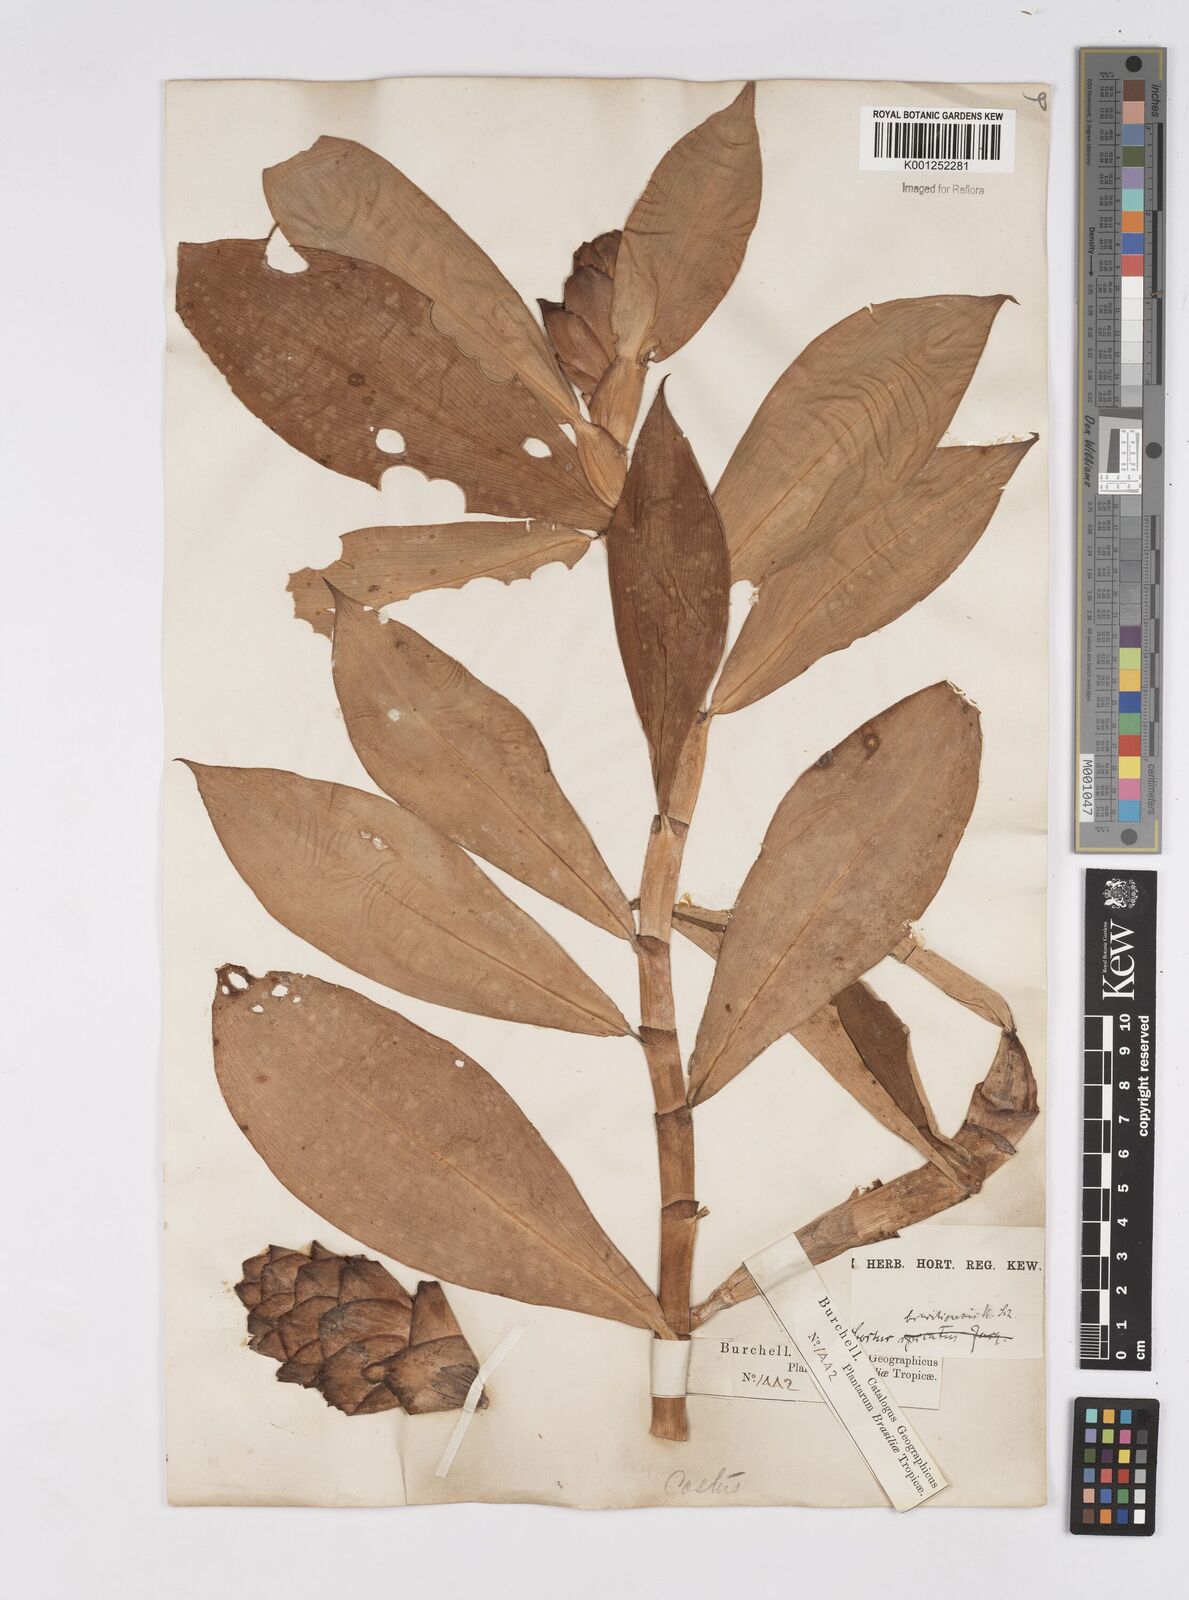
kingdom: Plantae
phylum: Tracheophyta
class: Liliopsida
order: Zingiberales
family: Costaceae
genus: Costus
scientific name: Costus spiralis
